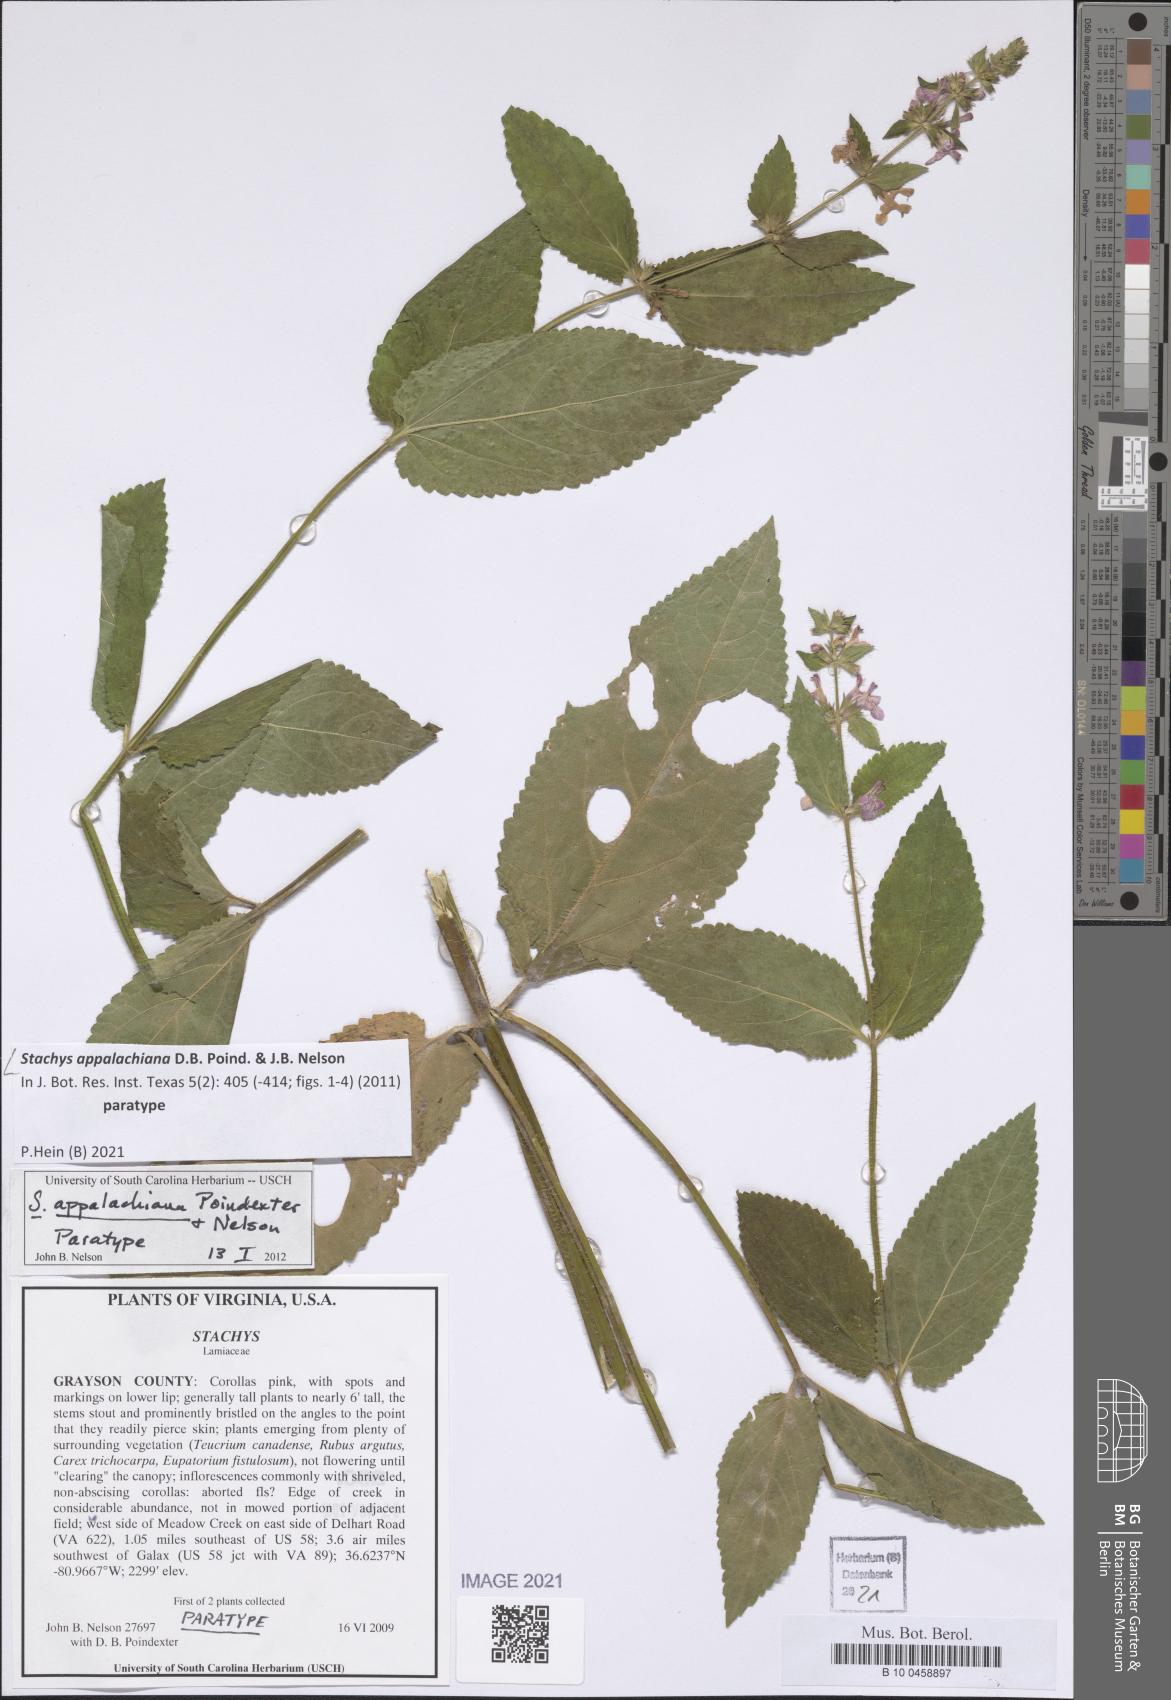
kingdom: Plantae
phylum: Tracheophyta
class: Magnoliopsida
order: Lamiales
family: Lamiaceae
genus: Stachys
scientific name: Stachys appalachiana
